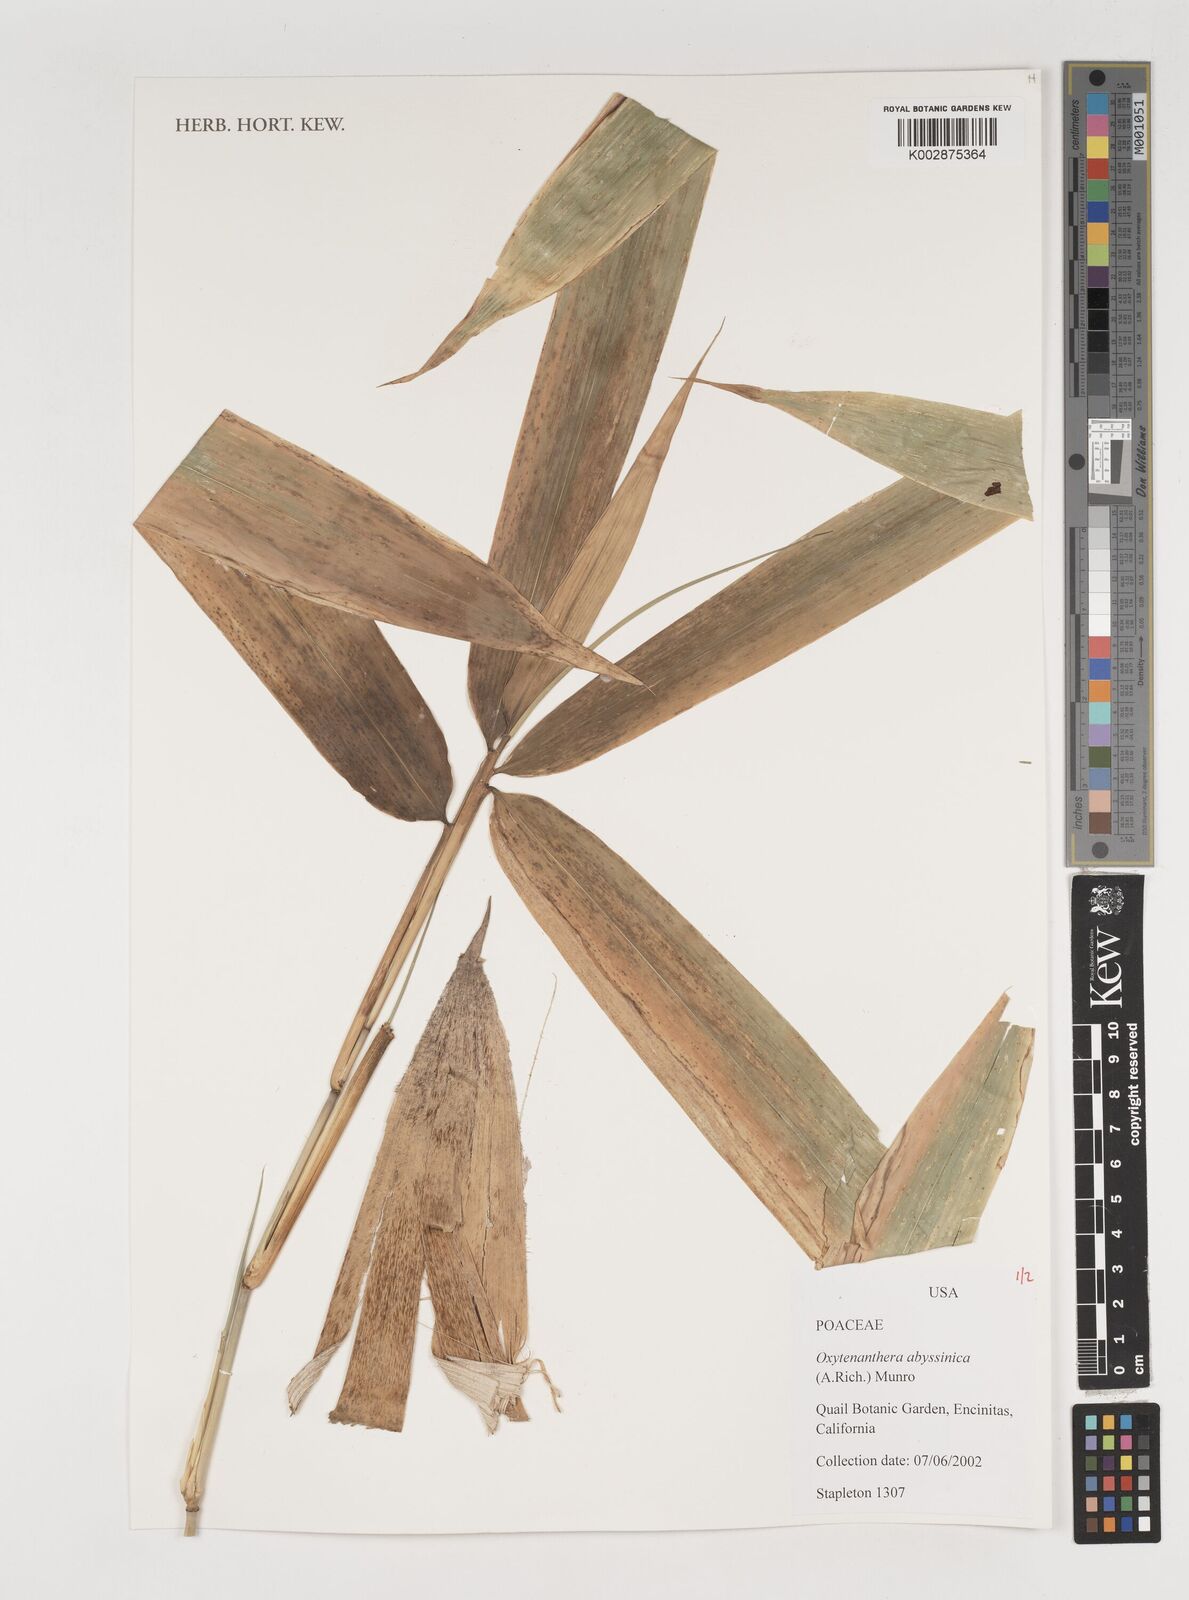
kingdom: Plantae
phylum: Tracheophyta
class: Liliopsida
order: Poales
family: Poaceae
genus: Oxytenanthera
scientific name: Oxytenanthera abyssinica
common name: Wine bamboo
